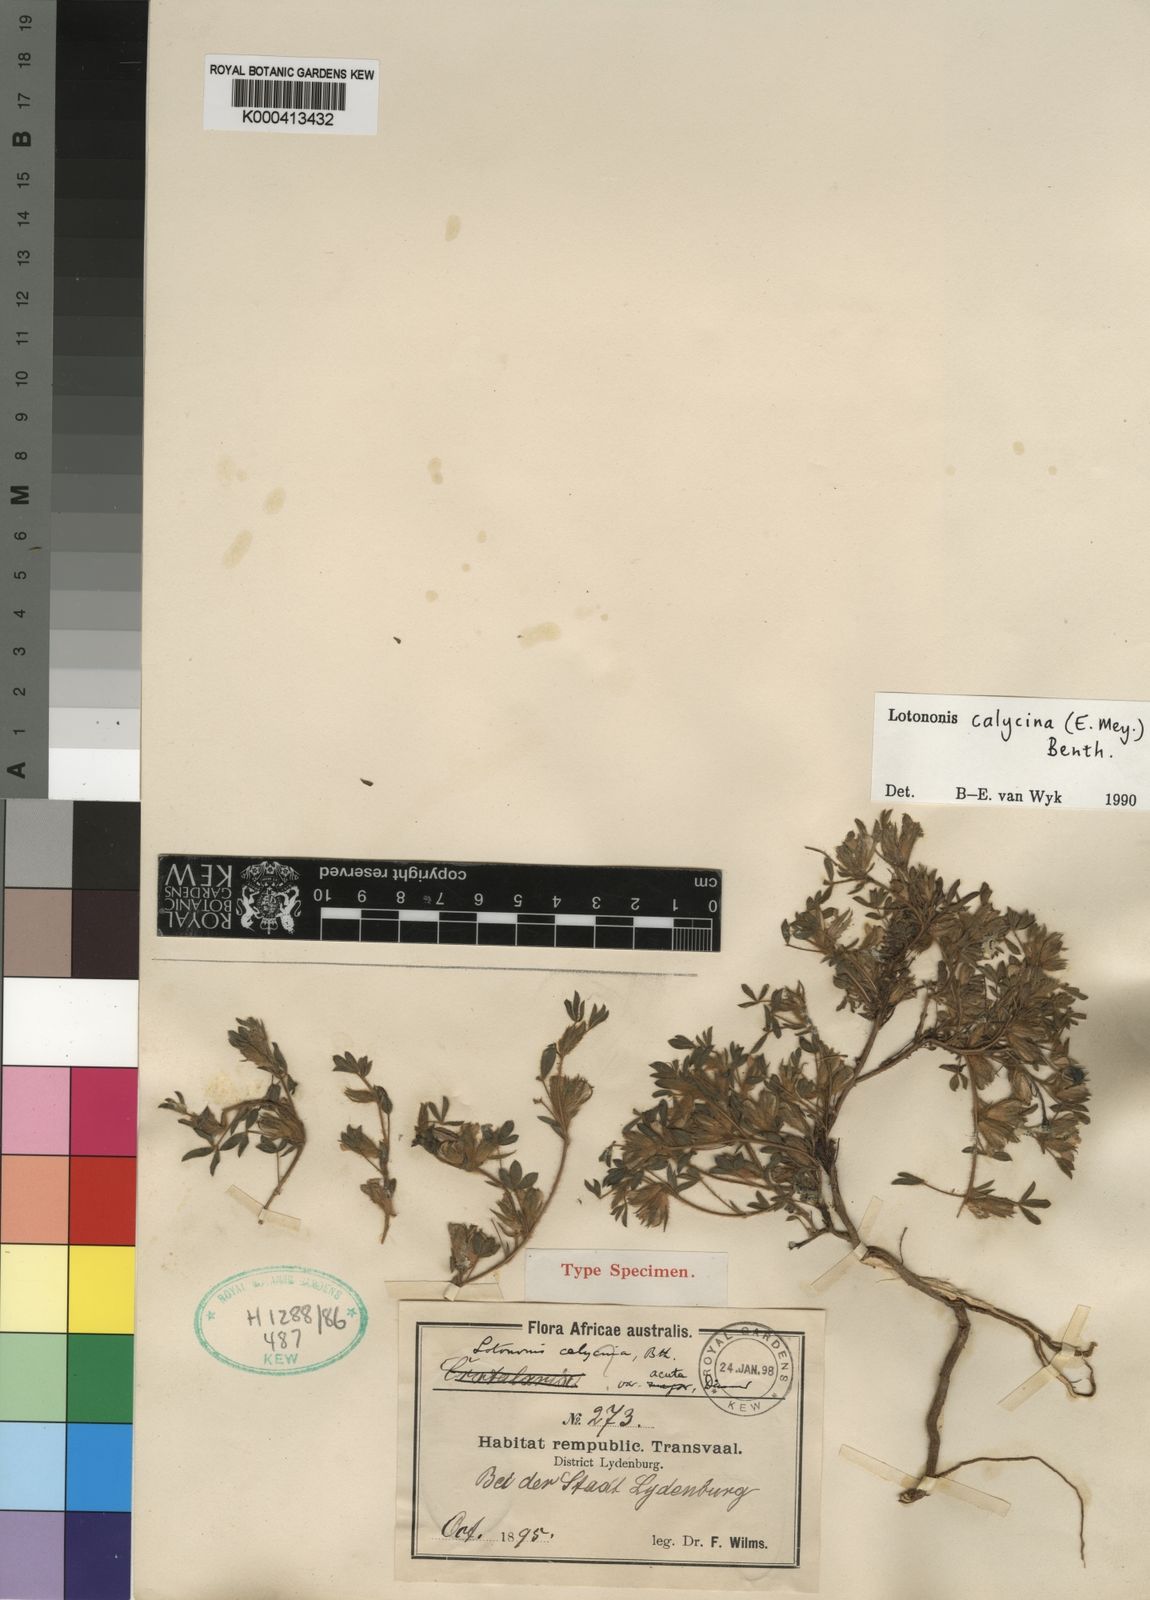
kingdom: Plantae
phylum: Tracheophyta
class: Magnoliopsida
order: Fabales
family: Fabaceae
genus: Leobordea
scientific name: Leobordea divaricata
